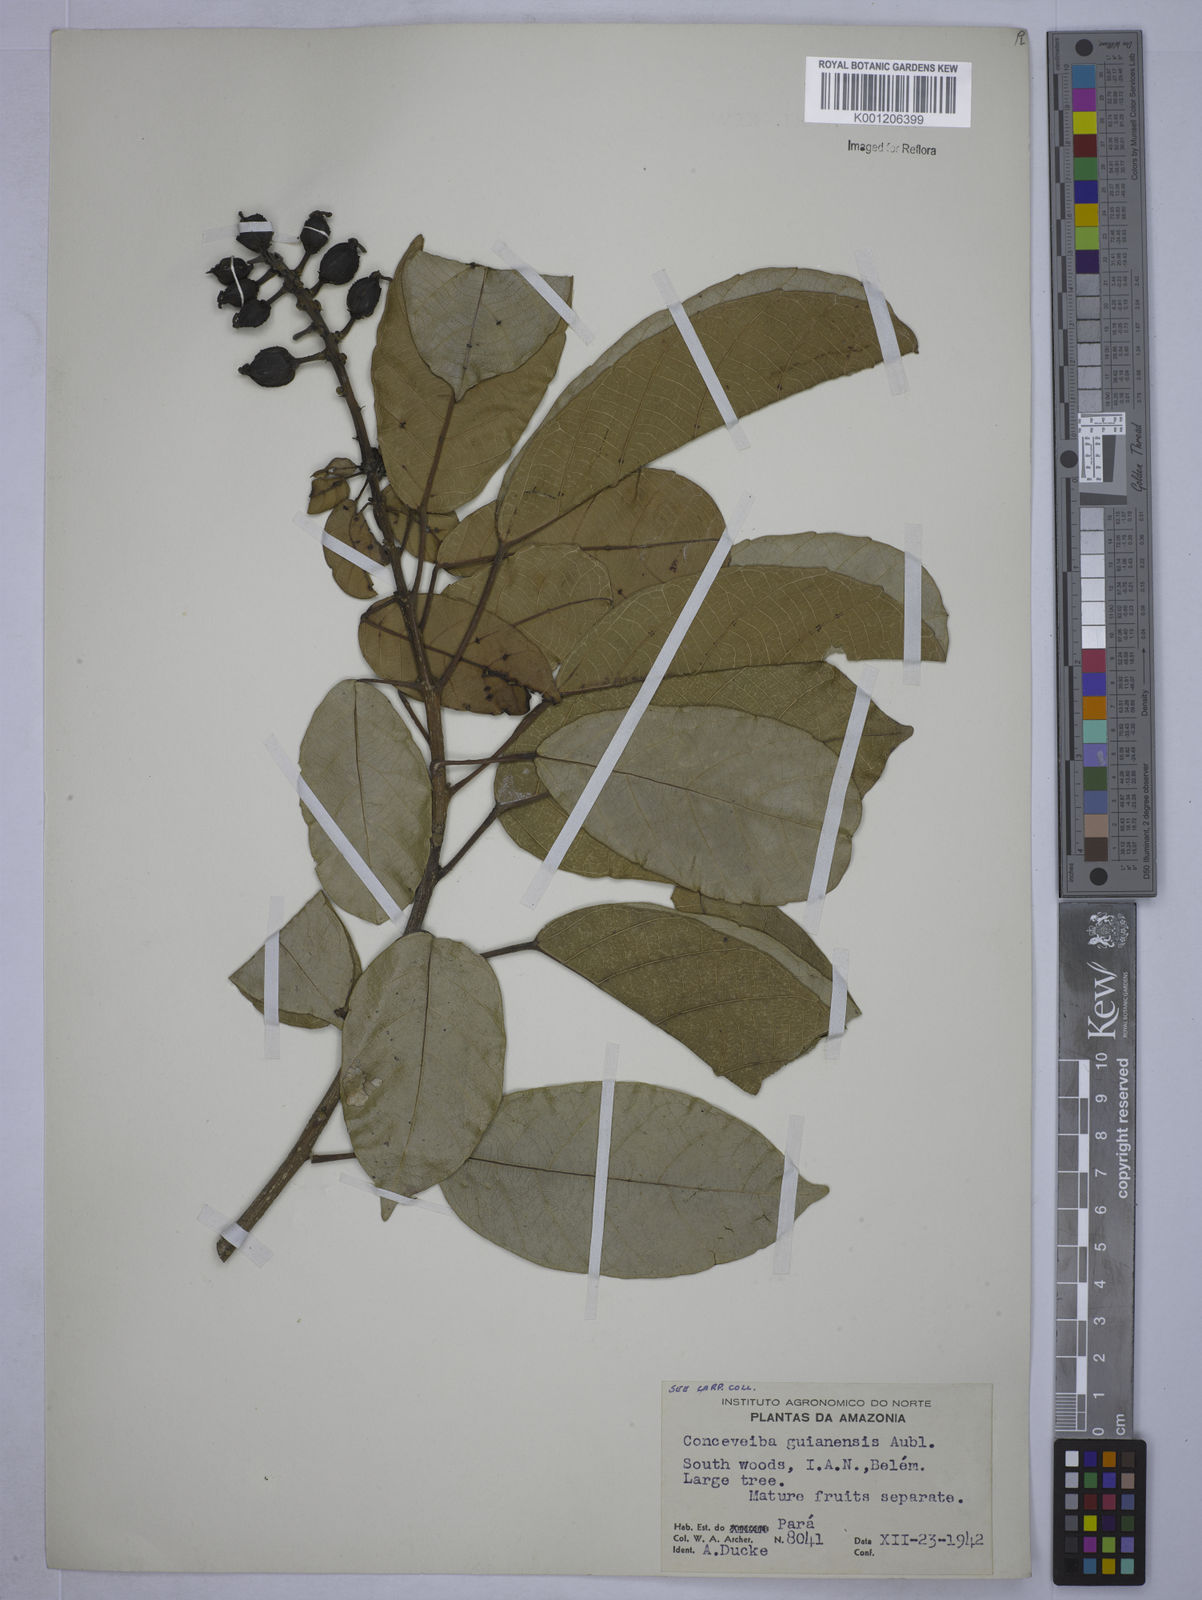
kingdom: Plantae
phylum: Tracheophyta
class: Magnoliopsida
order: Malpighiales
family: Euphorbiaceae
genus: Conceveiba
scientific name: Conceveiba guianensis
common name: Poatoru
